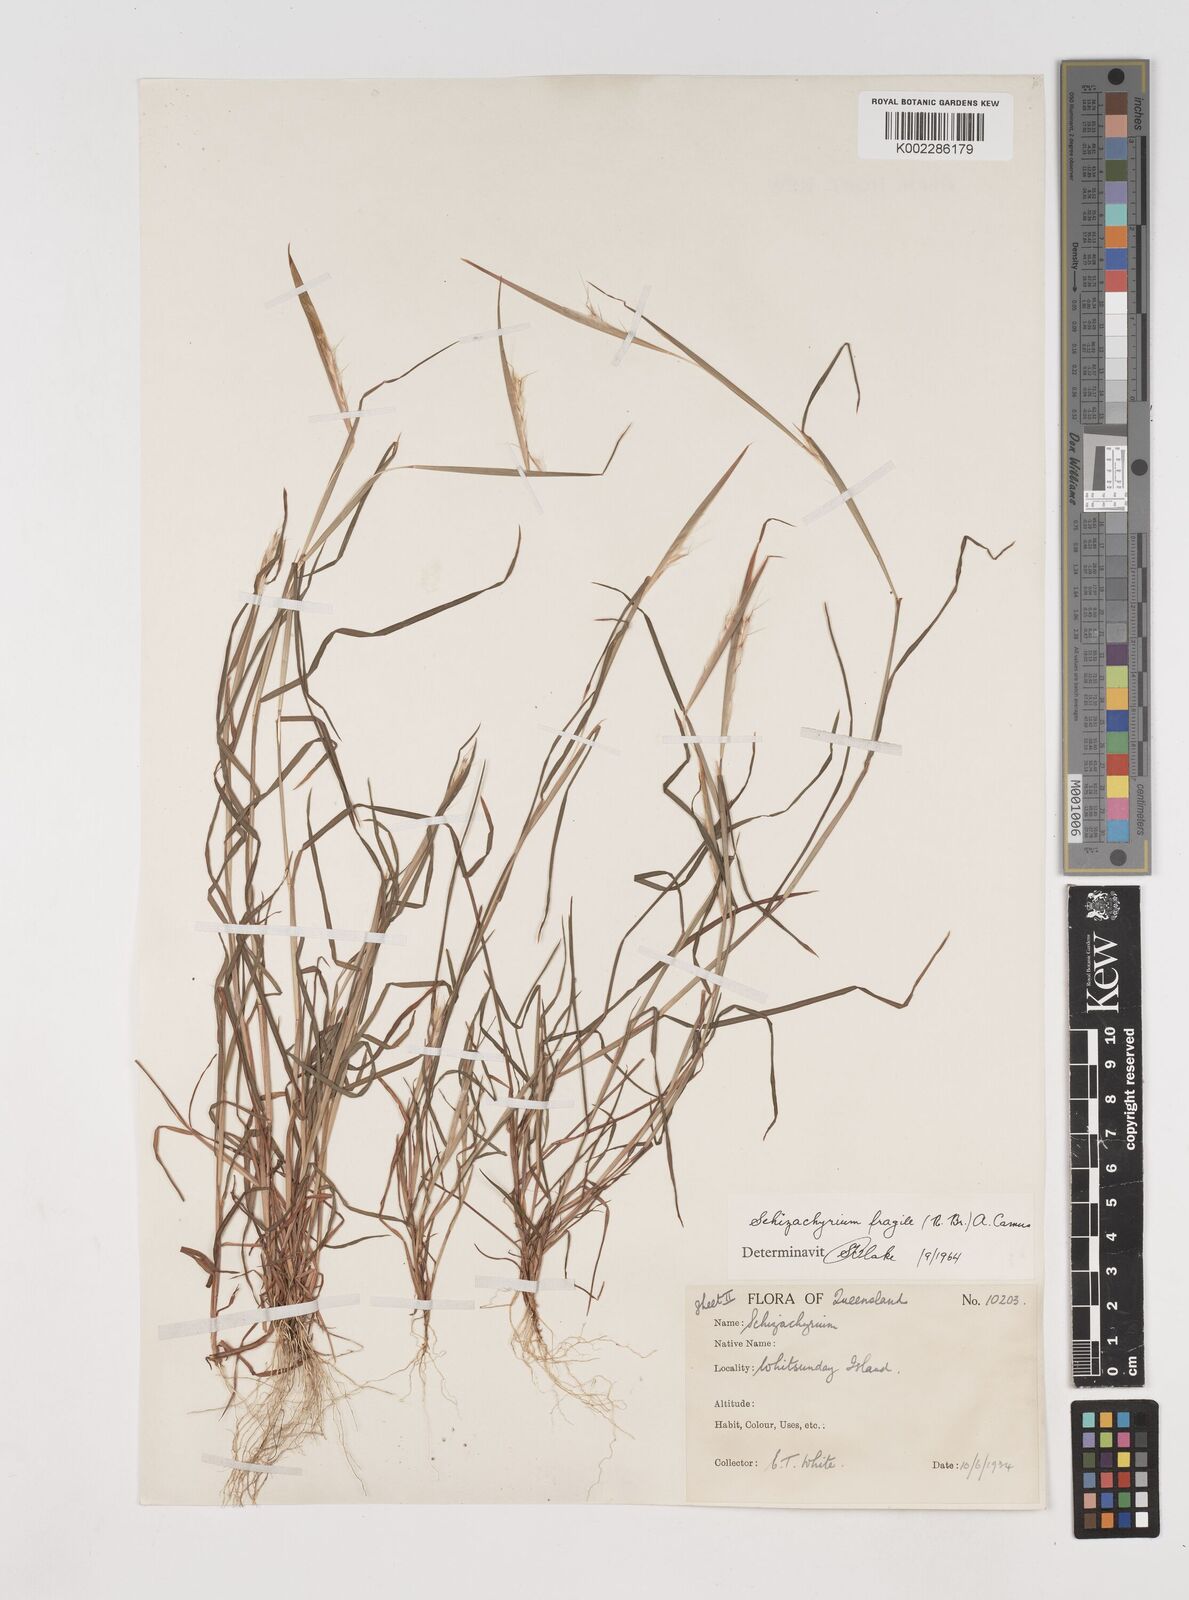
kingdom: Plantae
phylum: Tracheophyta
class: Liliopsida
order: Poales
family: Poaceae
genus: Schizachyrium
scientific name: Schizachyrium fragile
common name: Red spathe grass
